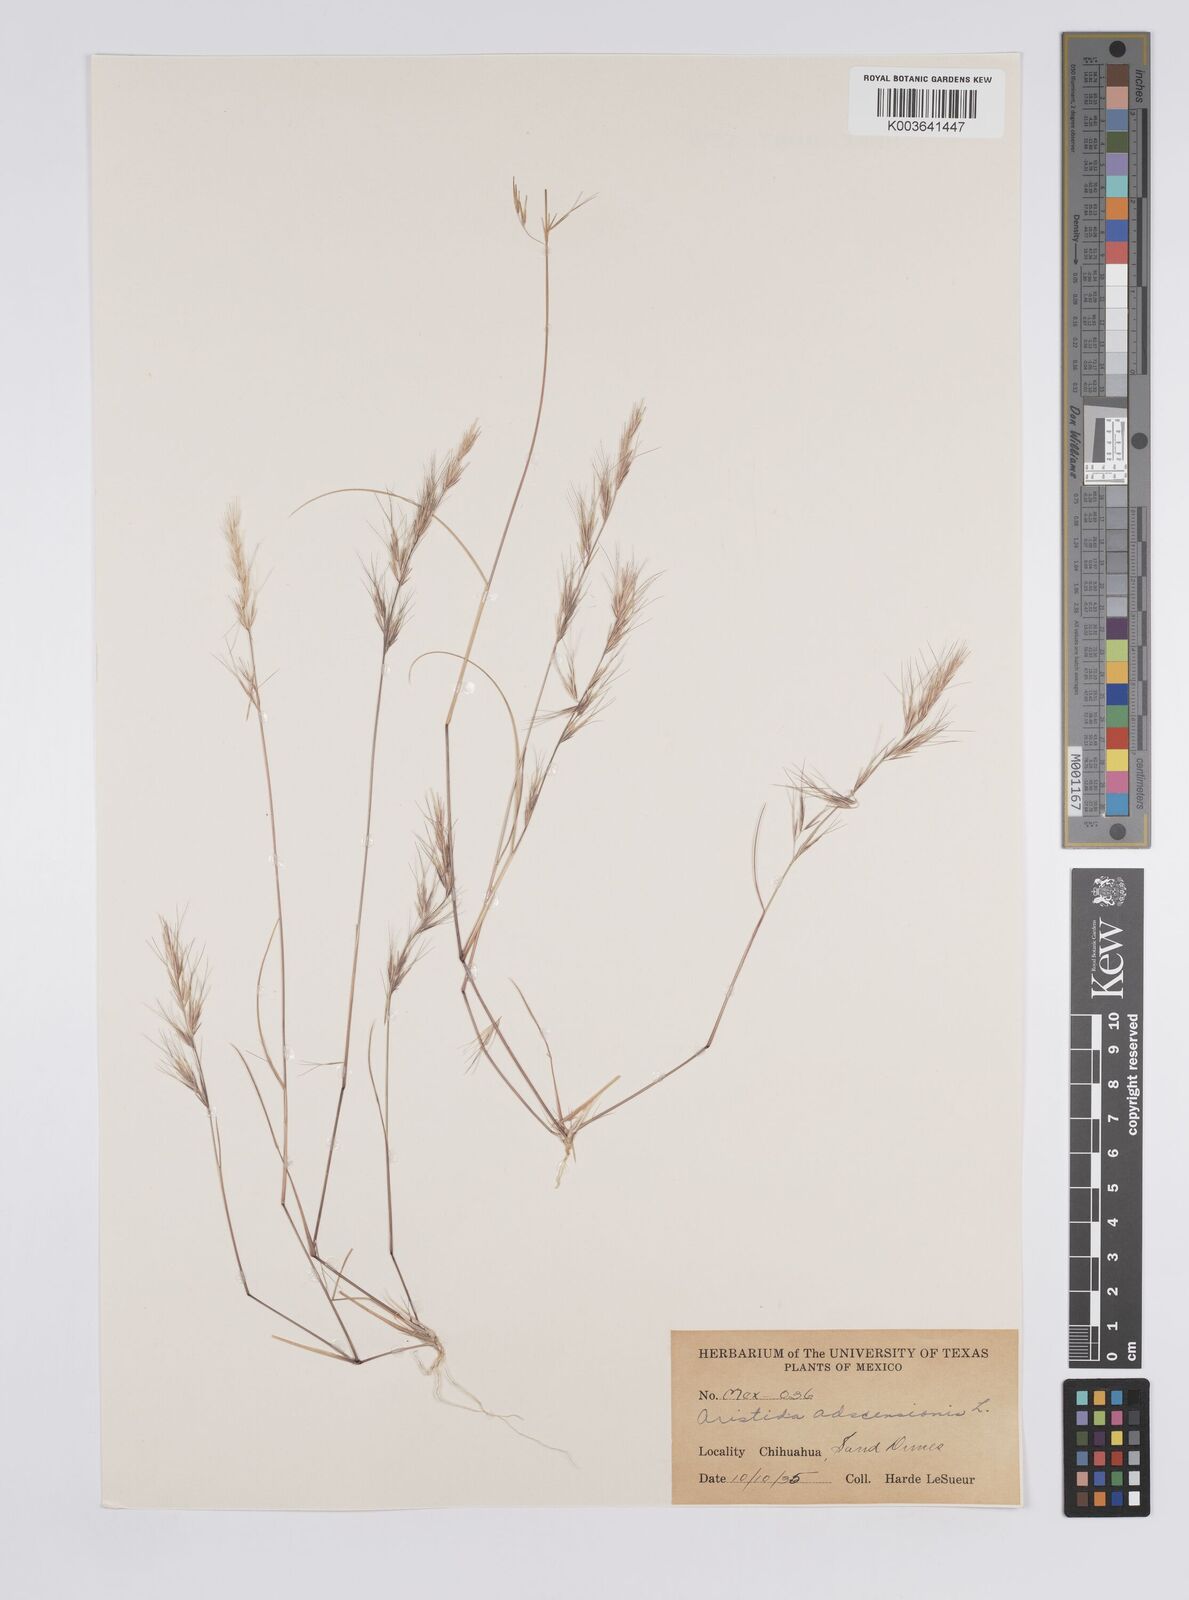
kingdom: Plantae
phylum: Tracheophyta
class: Liliopsida
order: Poales
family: Poaceae
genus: Aristida
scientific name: Aristida adscensionis
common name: Sixweeks threeawn
